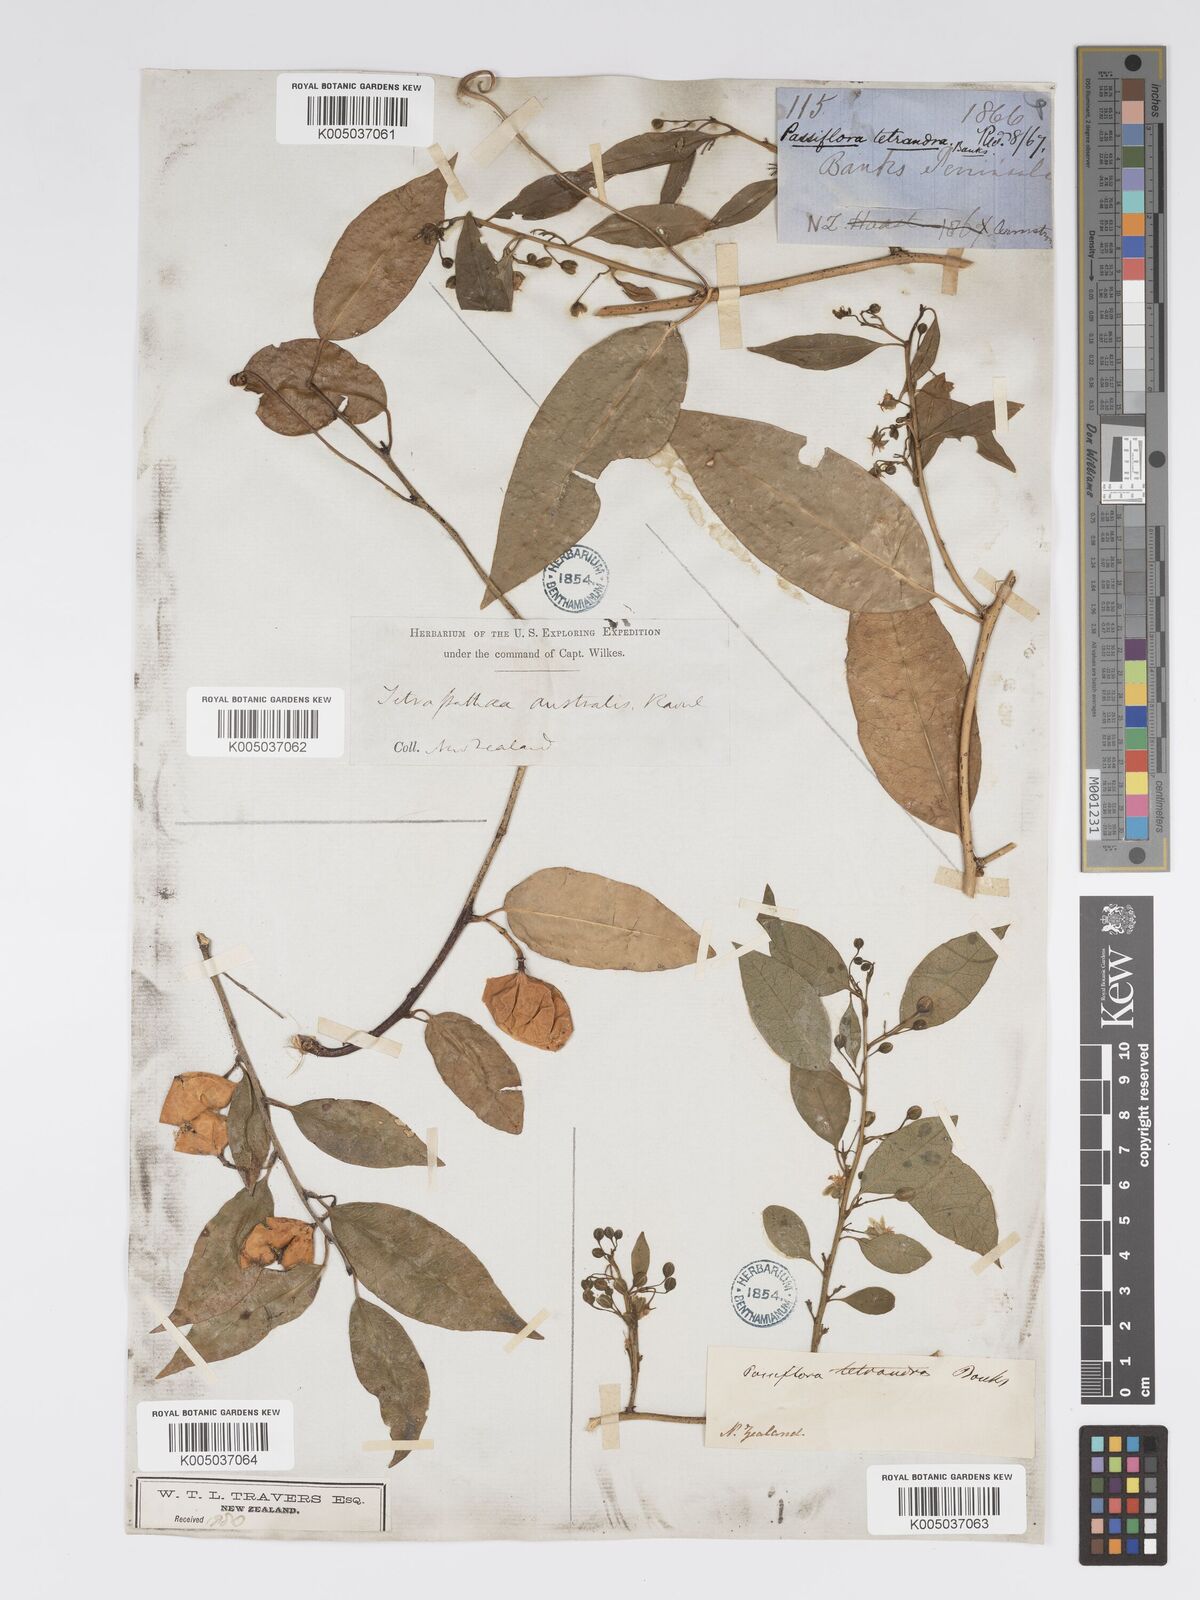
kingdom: Plantae
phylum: Tracheophyta
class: Magnoliopsida
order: Malpighiales
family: Passifloraceae
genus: Passiflora
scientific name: Passiflora tetrandra
